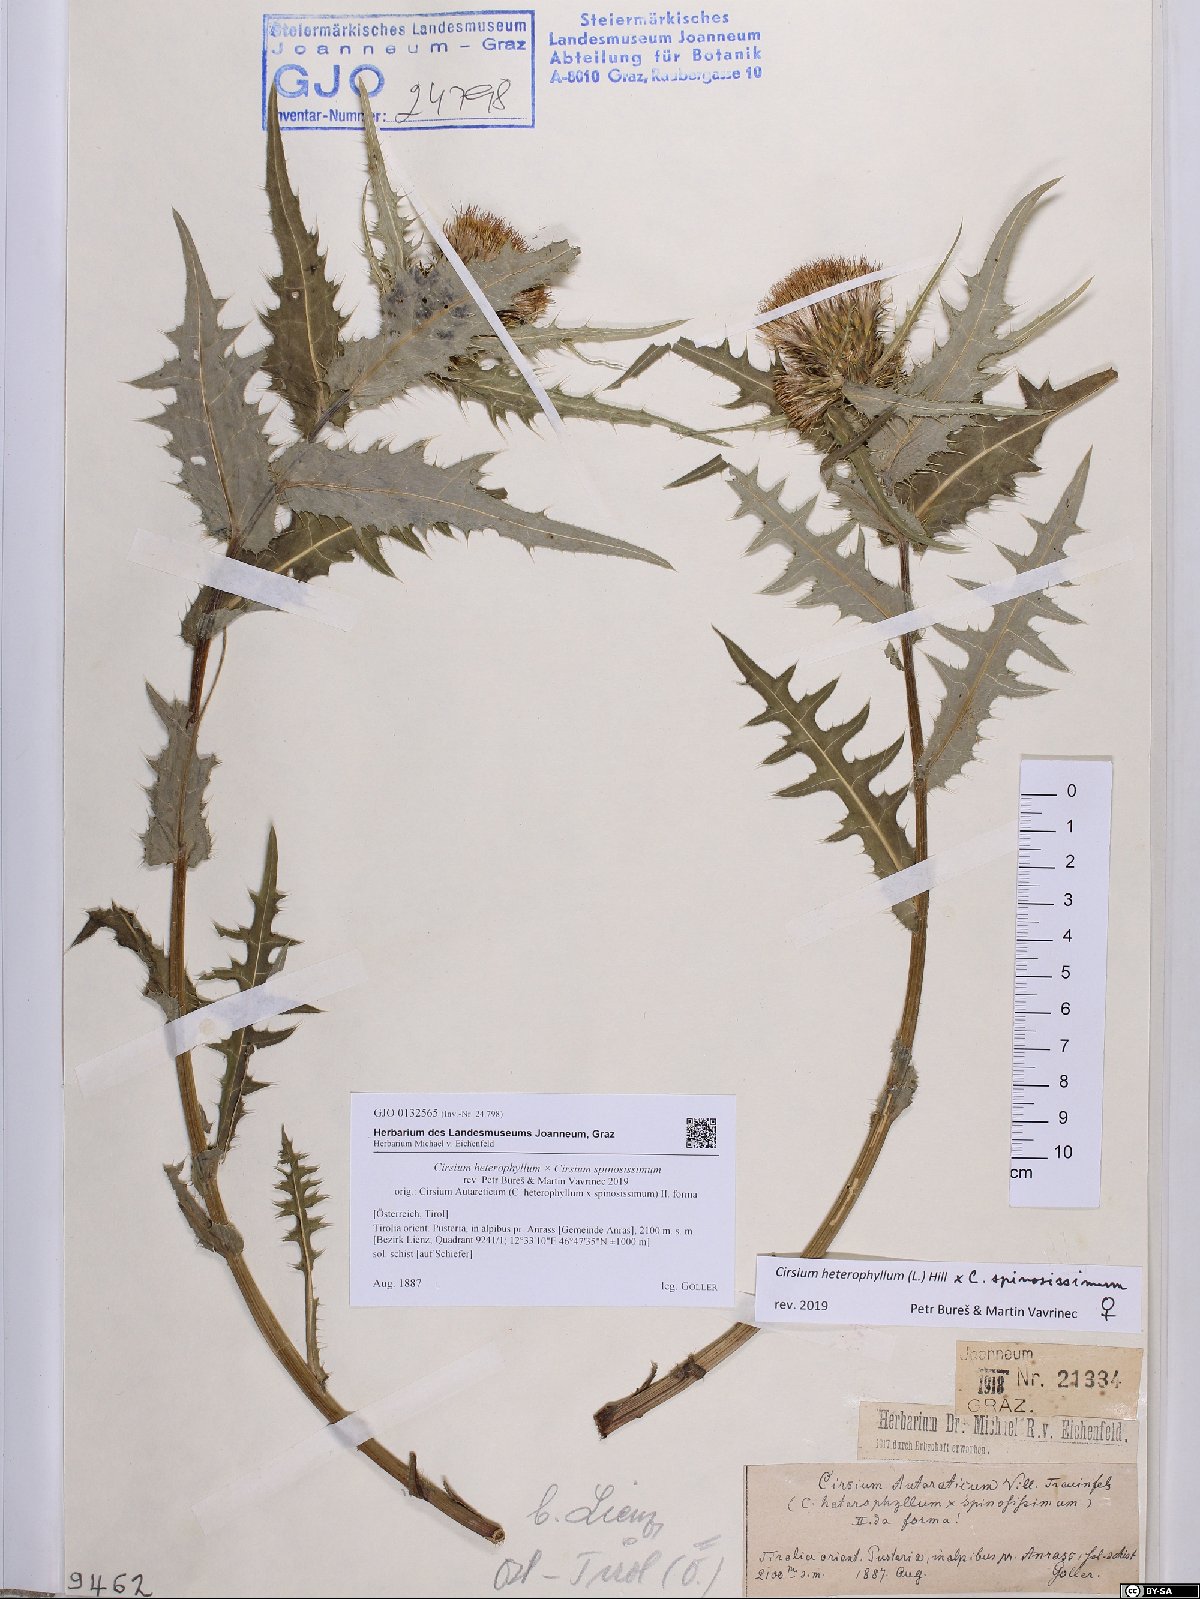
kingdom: Plantae
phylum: Tracheophyta
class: Magnoliopsida
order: Asterales
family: Asteraceae
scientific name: Asteraceae
